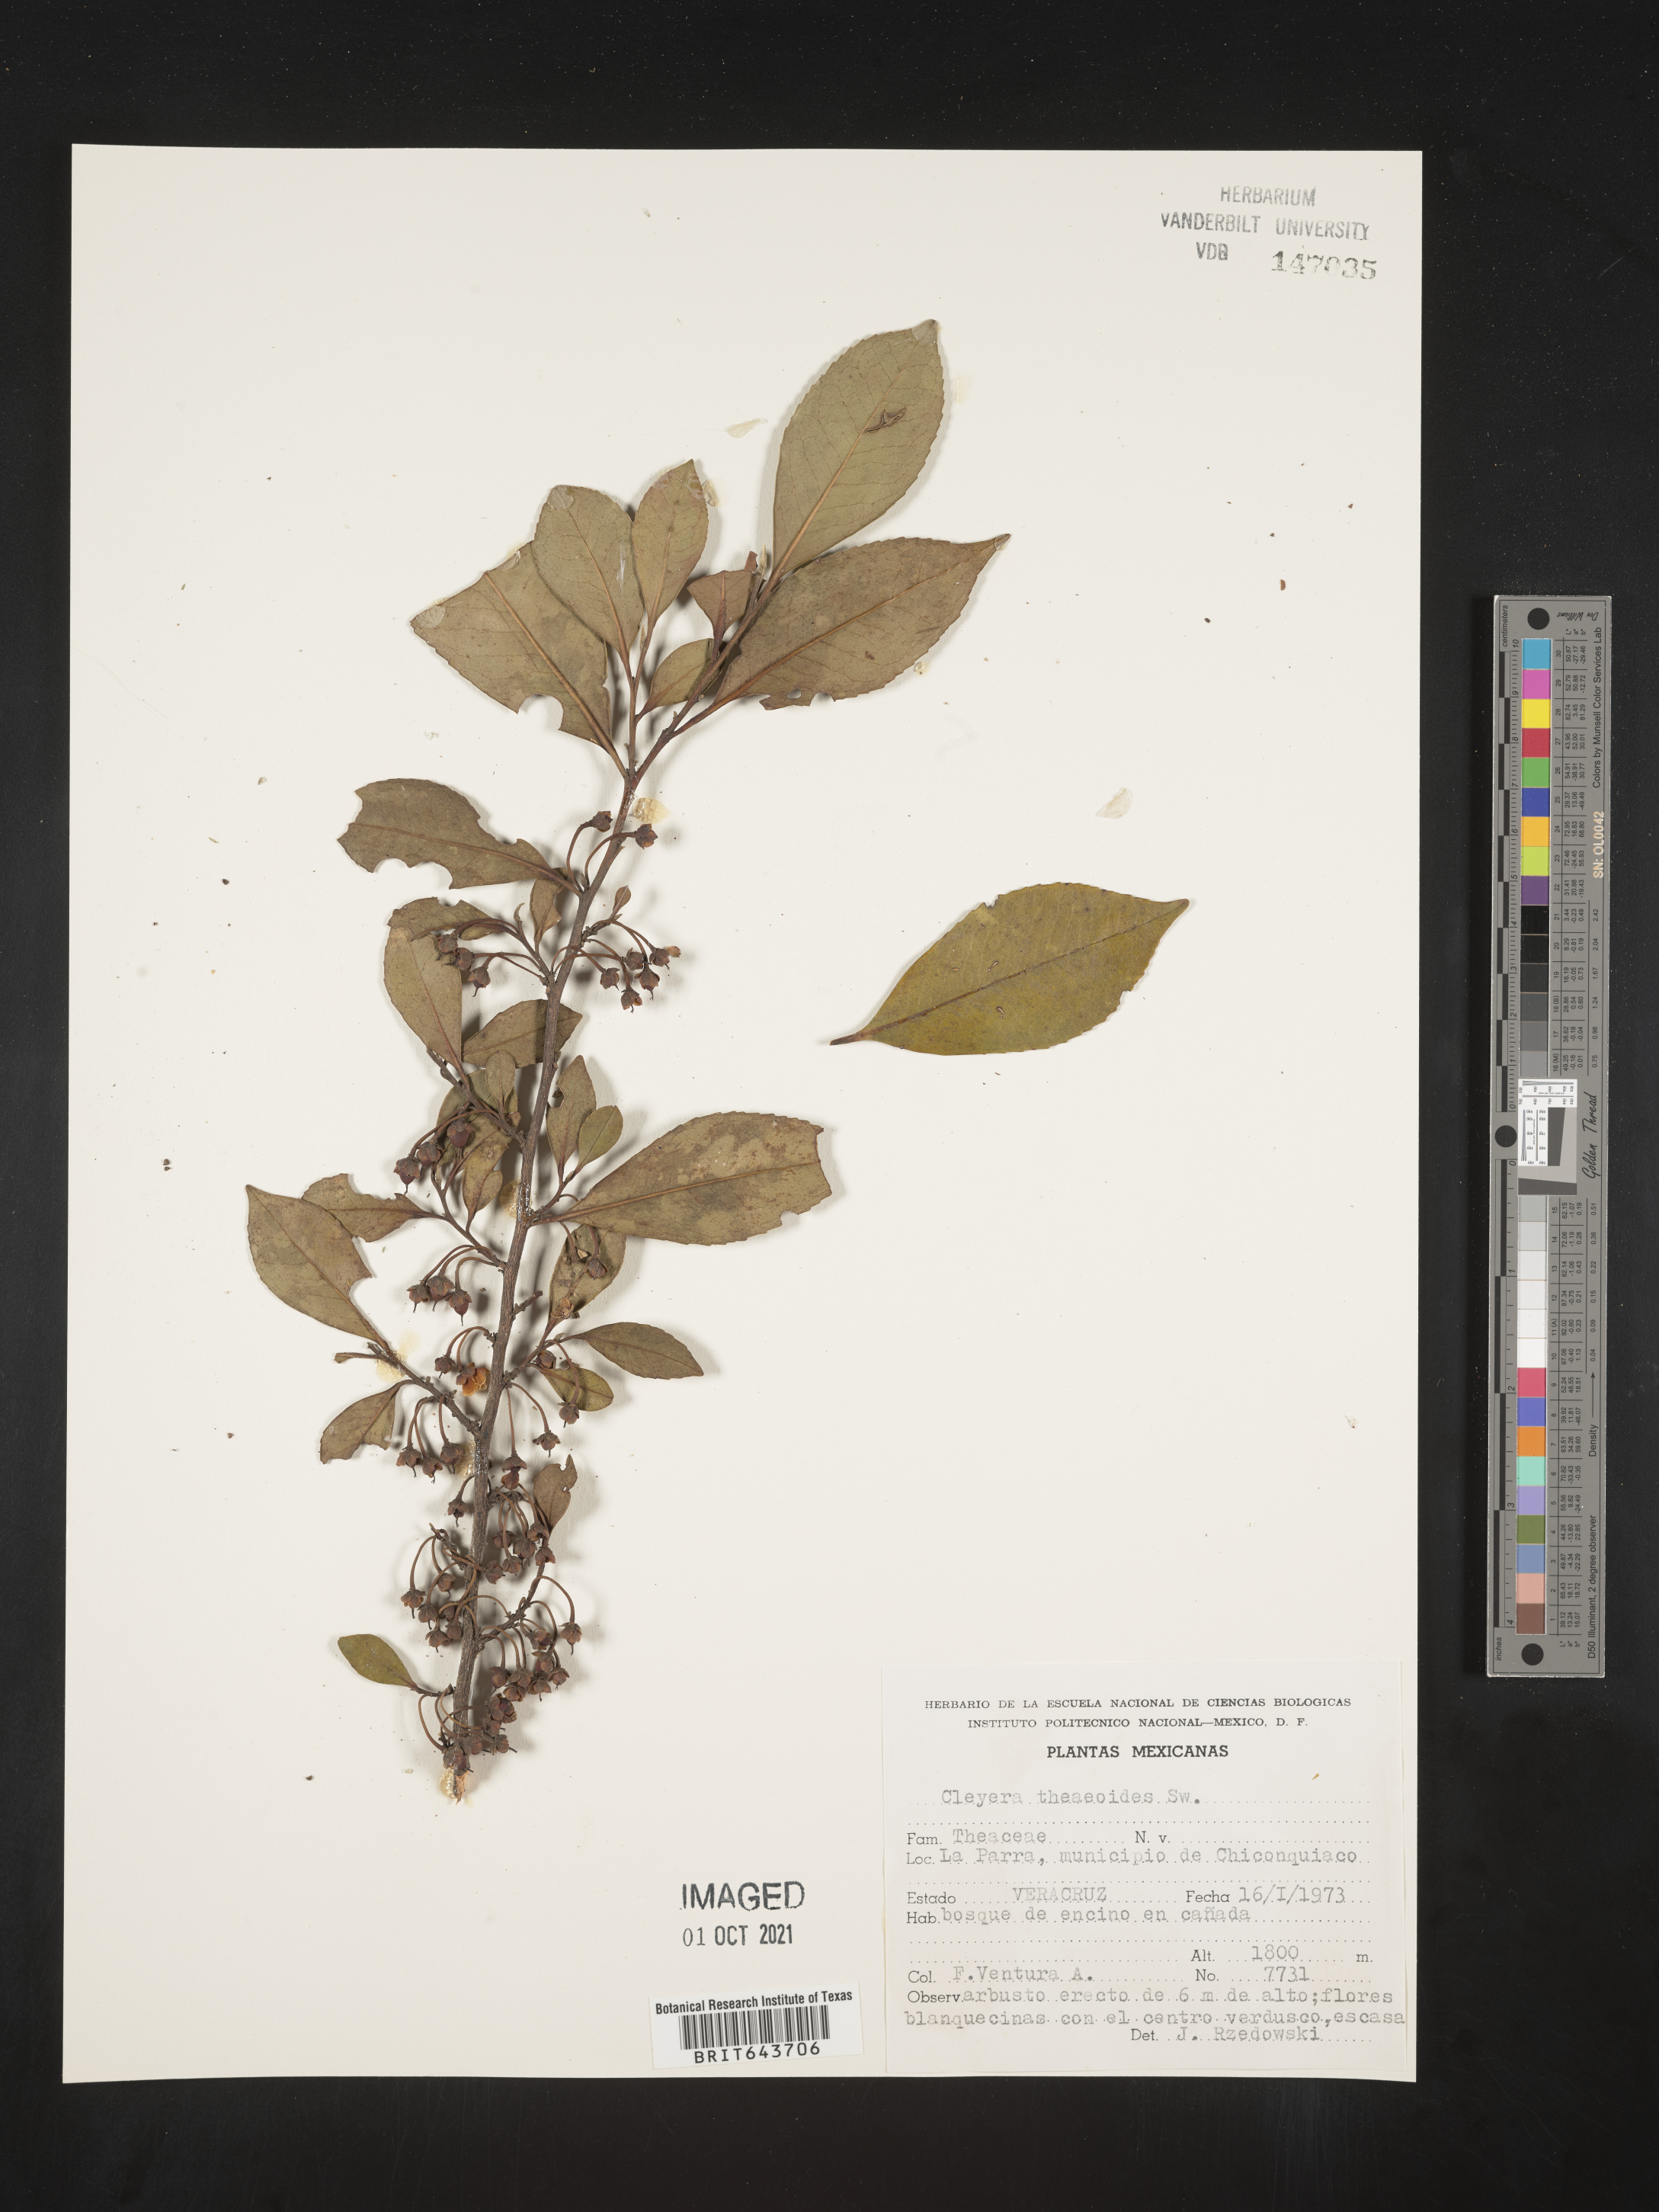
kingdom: Plantae
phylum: Tracheophyta
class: Magnoliopsida
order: Ericales
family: Pentaphylacaceae
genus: Cleyera
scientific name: Cleyera
